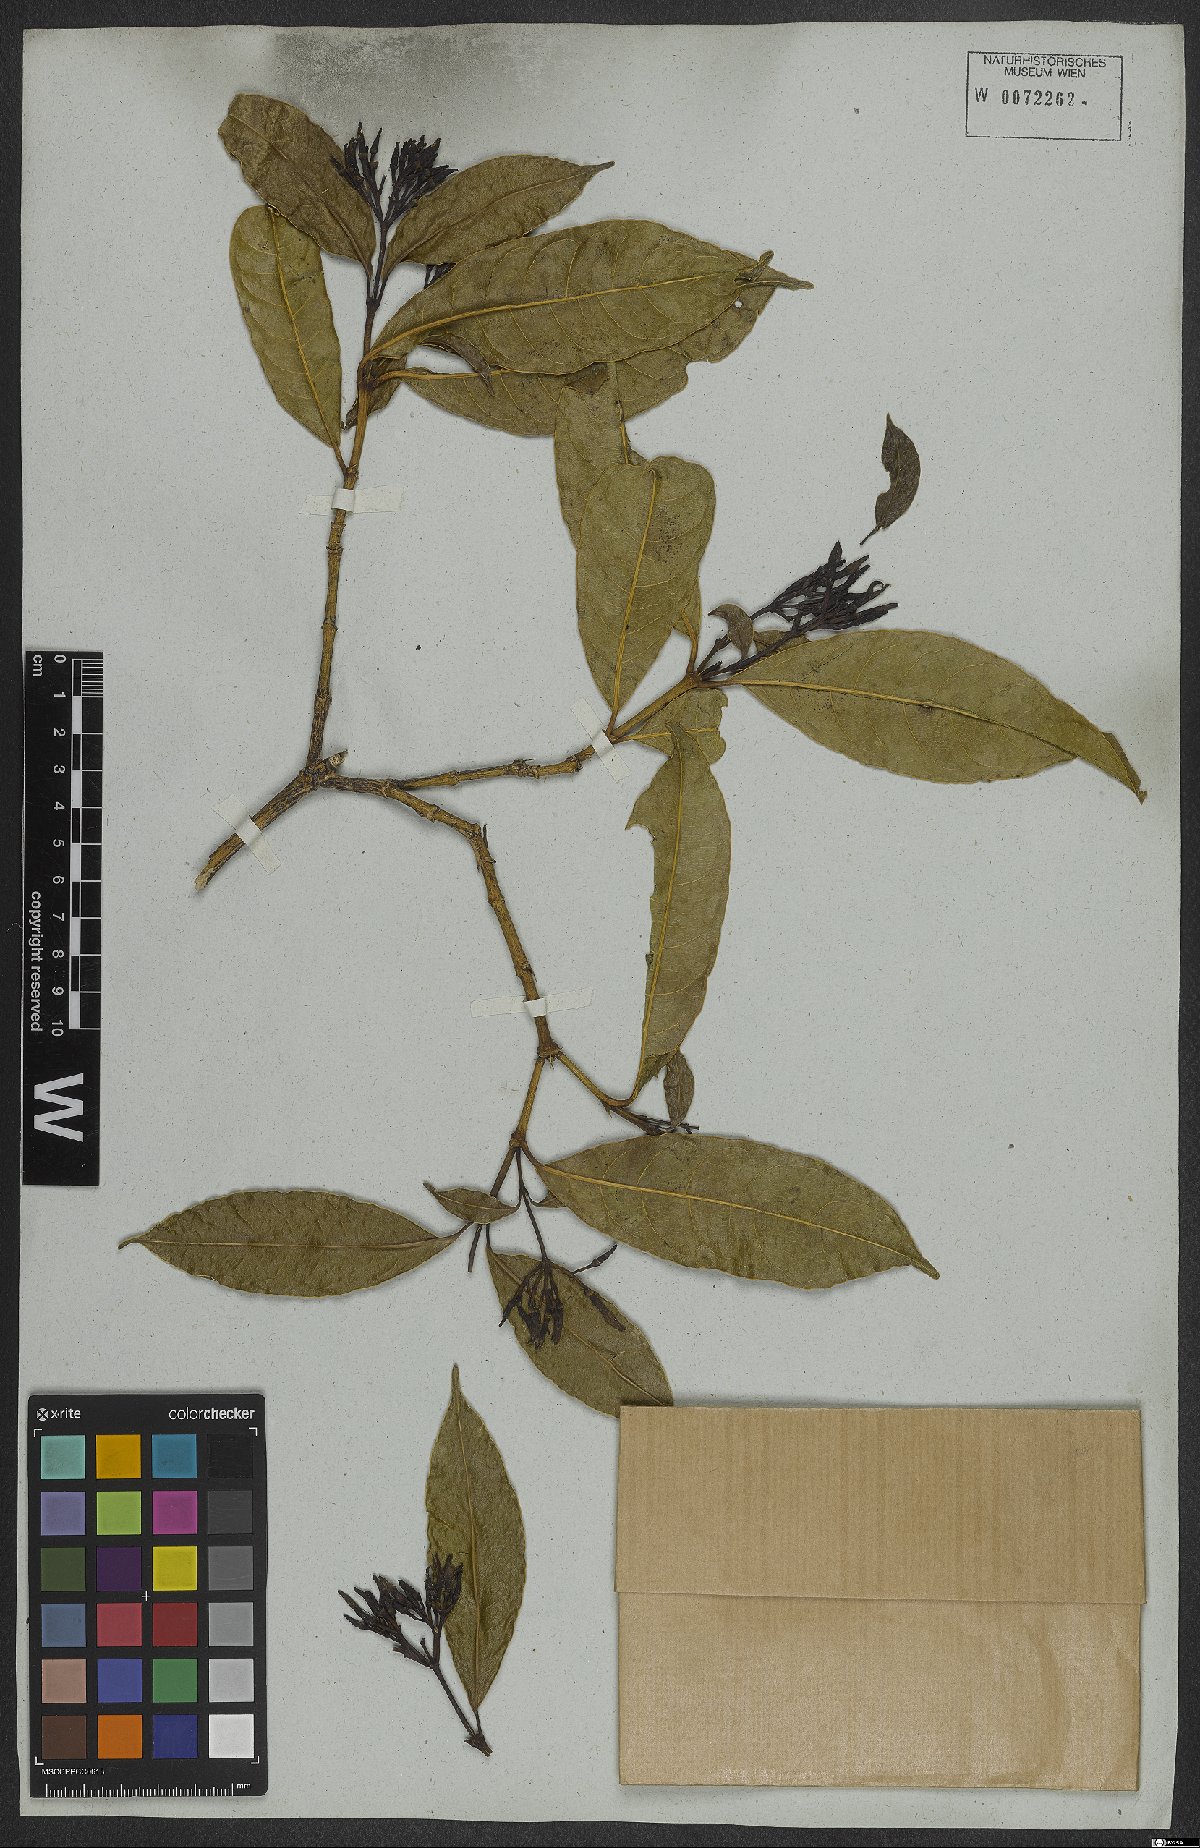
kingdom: Plantae
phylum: Tracheophyta
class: Magnoliopsida
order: Gentianales
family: Rubiaceae
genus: Faramea
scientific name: Faramea nigrescens
